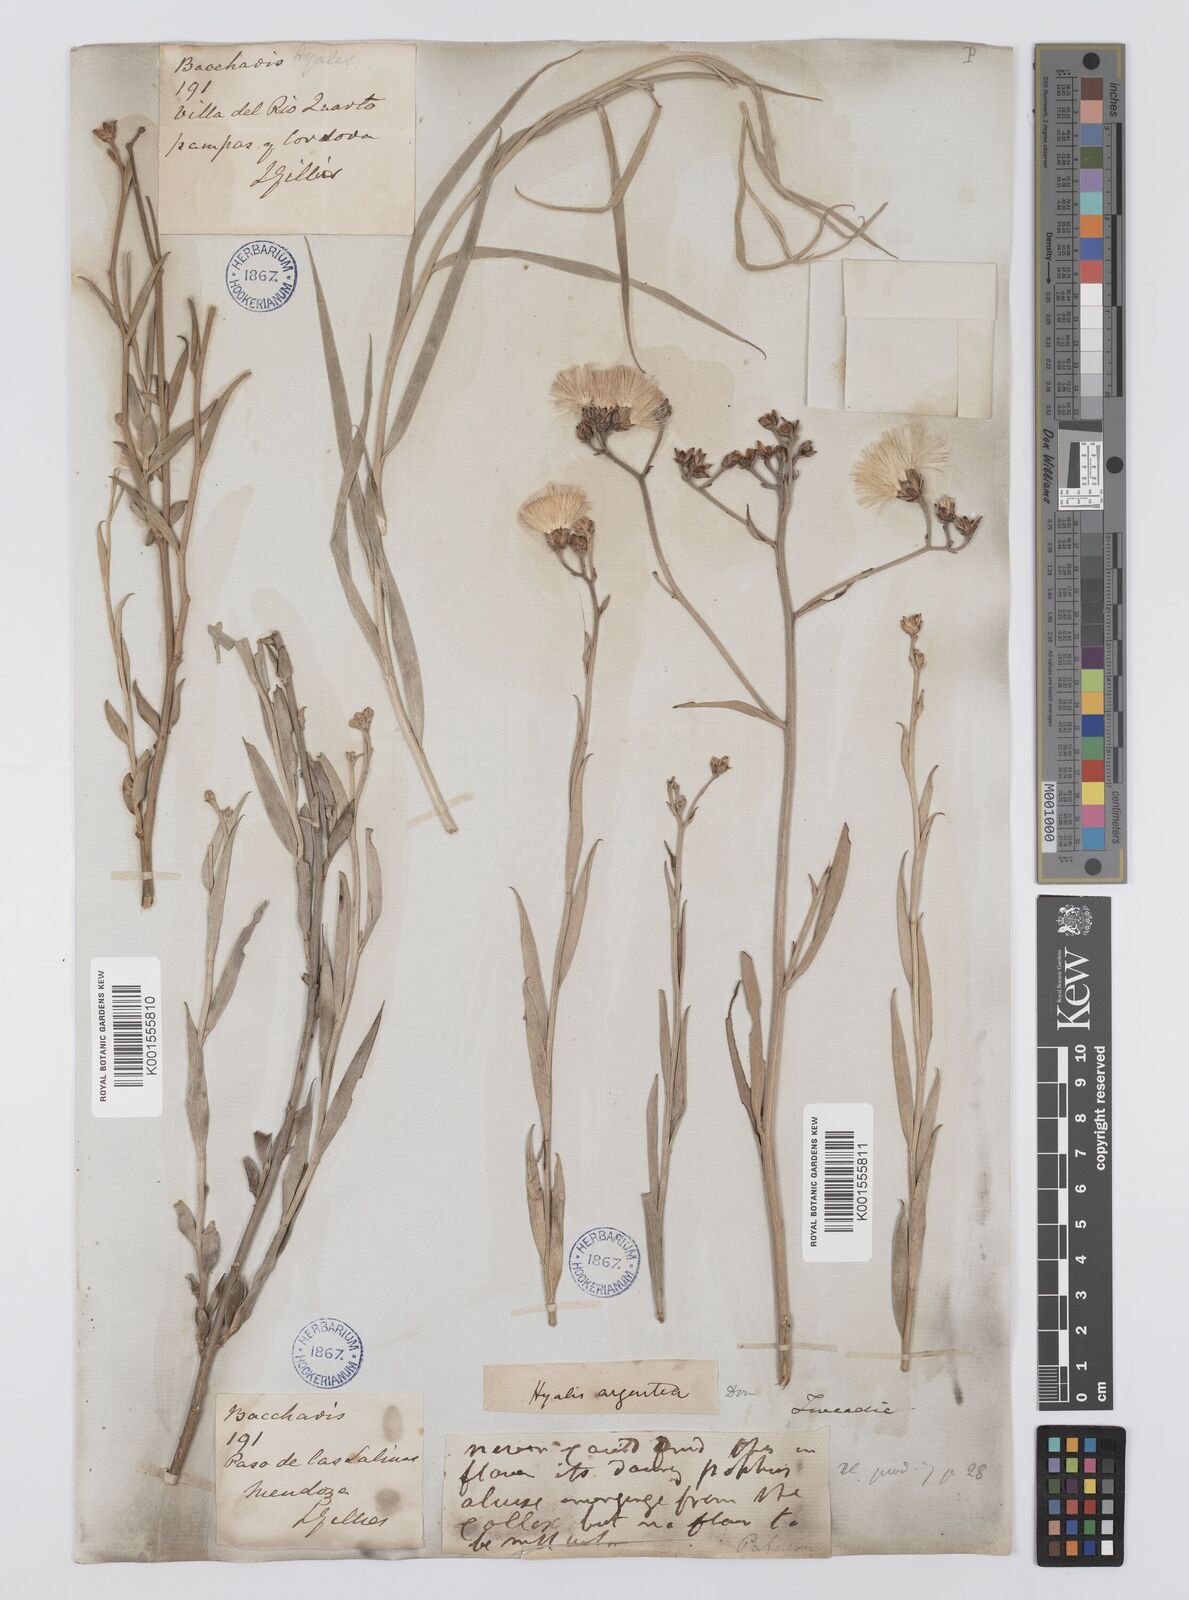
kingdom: Plantae
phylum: Tracheophyta
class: Magnoliopsida
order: Asterales
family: Asteraceae
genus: Hyalis
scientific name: Hyalis argentea
